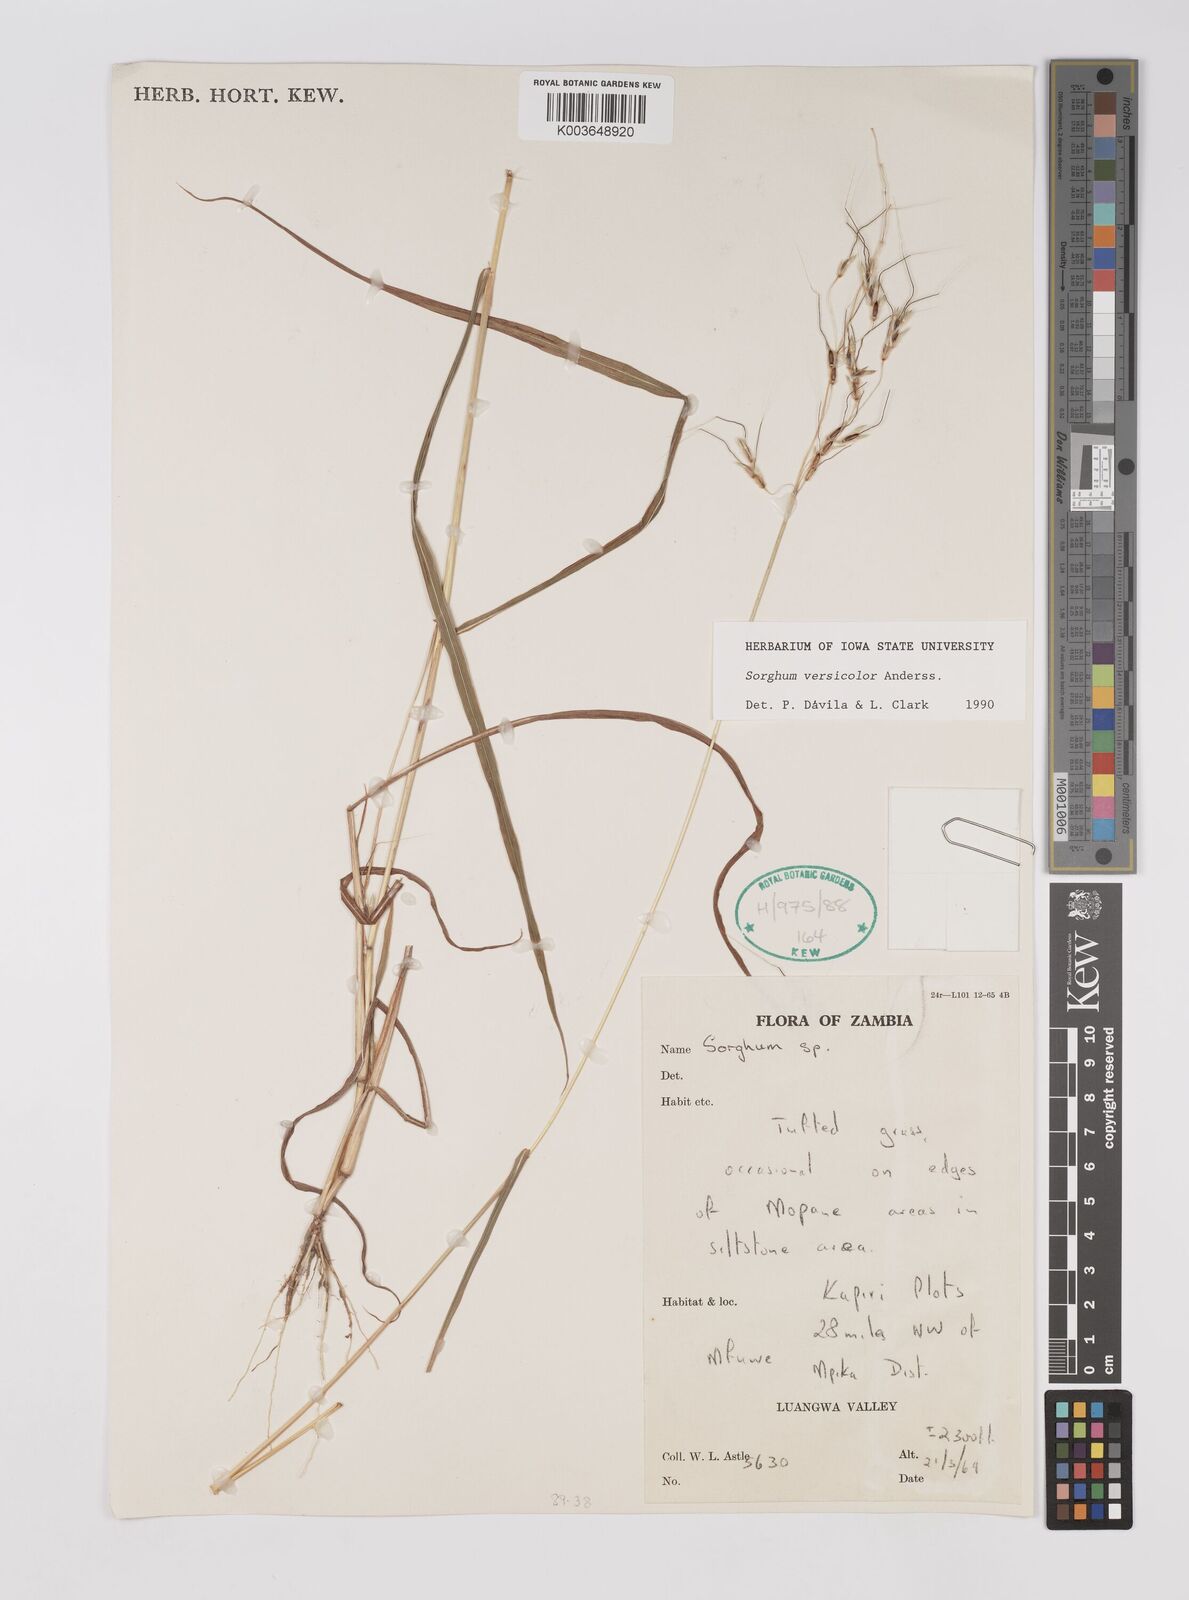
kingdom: Plantae
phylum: Tracheophyta
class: Liliopsida
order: Poales
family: Poaceae
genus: Sarga
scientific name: Sarga versicolor
